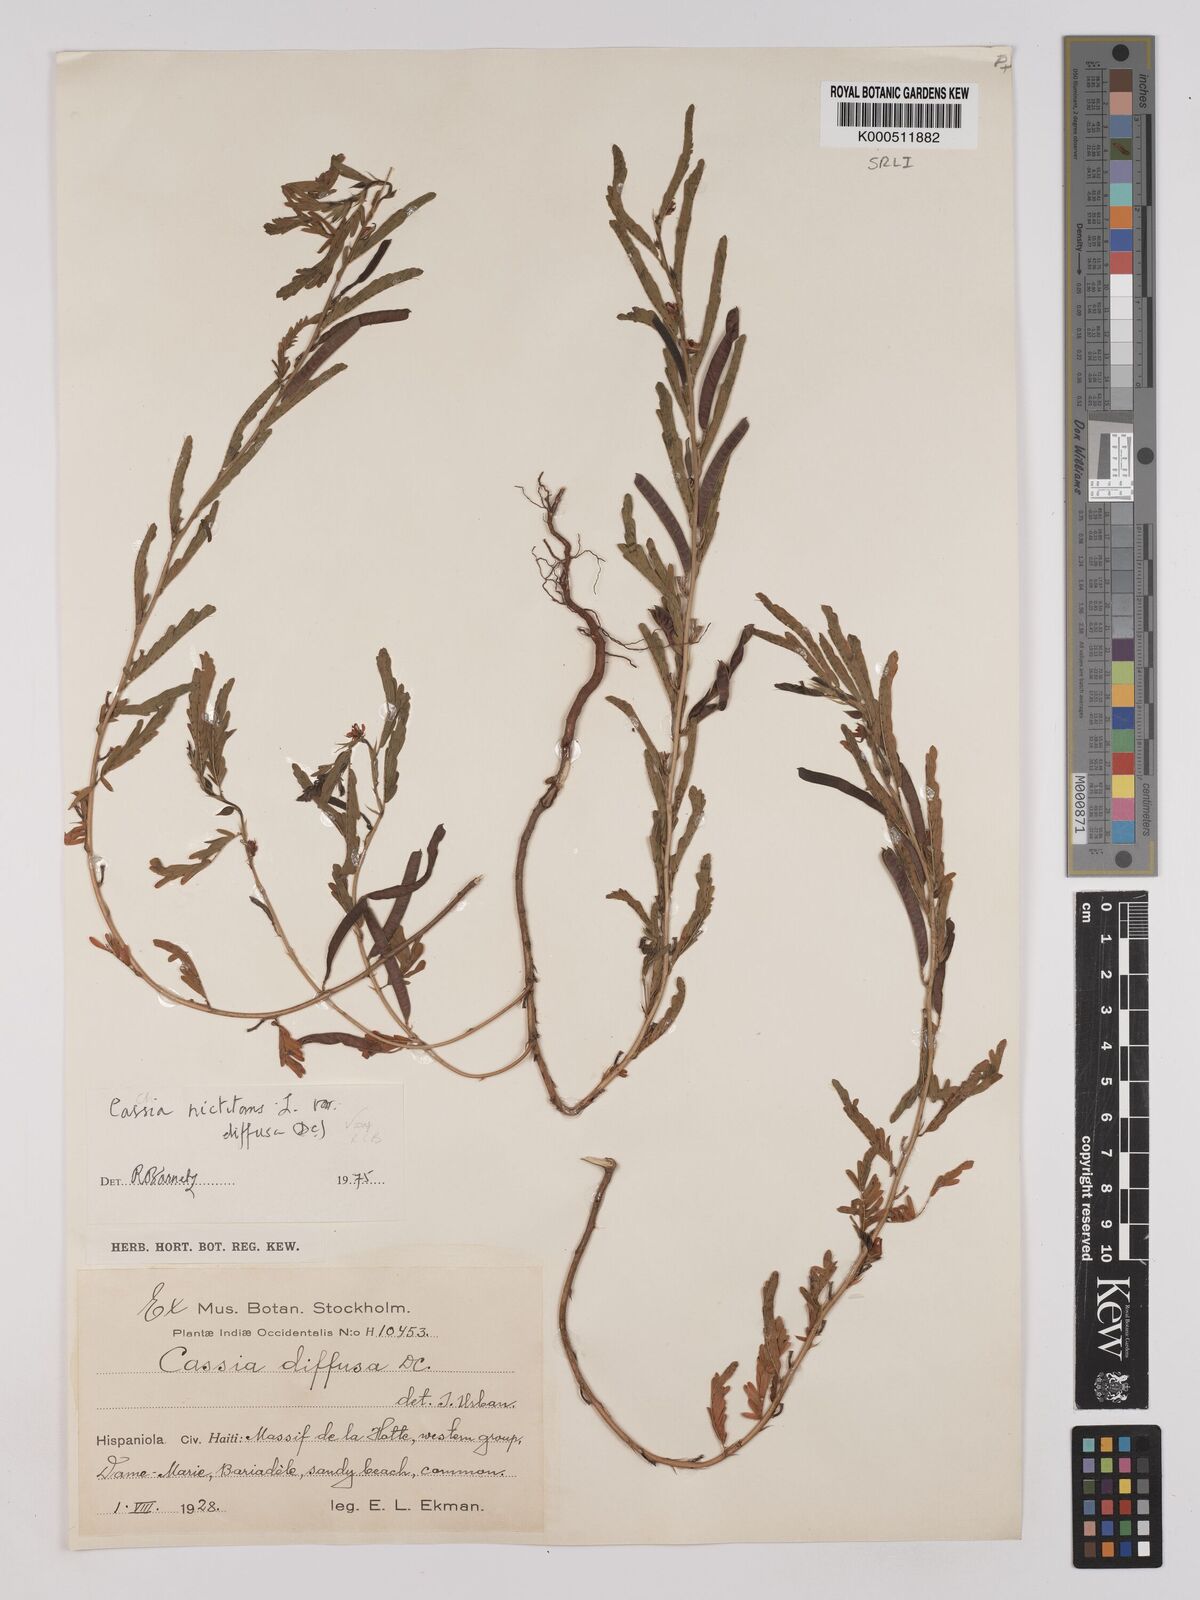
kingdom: Plantae
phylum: Tracheophyta
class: Magnoliopsida
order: Fabales
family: Fabaceae
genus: Chamaecrista
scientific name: Chamaecrista nictitans
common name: Sensitive cassia
